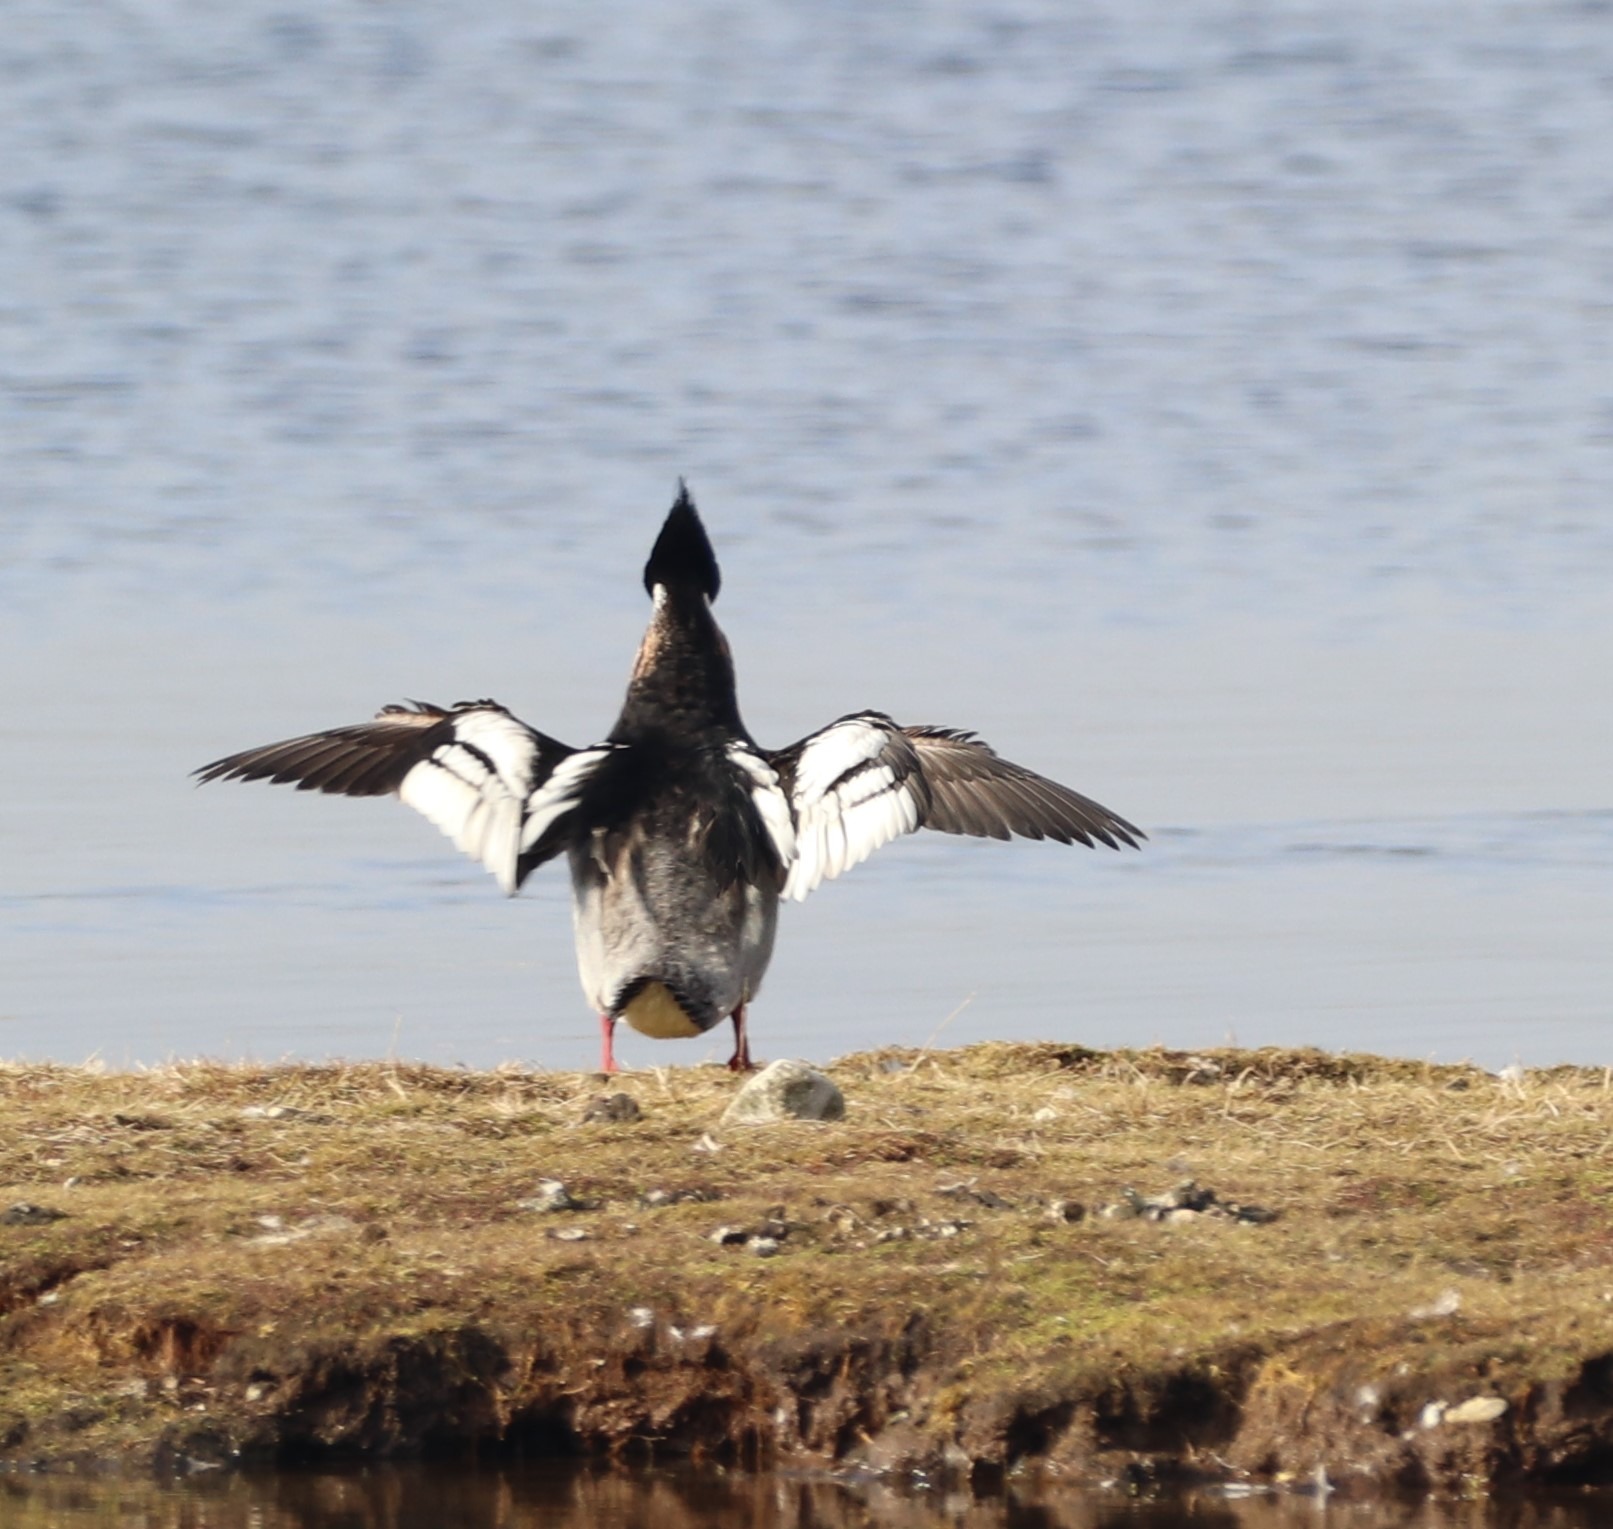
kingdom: Animalia
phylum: Chordata
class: Aves
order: Anseriformes
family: Anatidae
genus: Mergus
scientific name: Mergus serrator
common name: Toppet skallesluger
